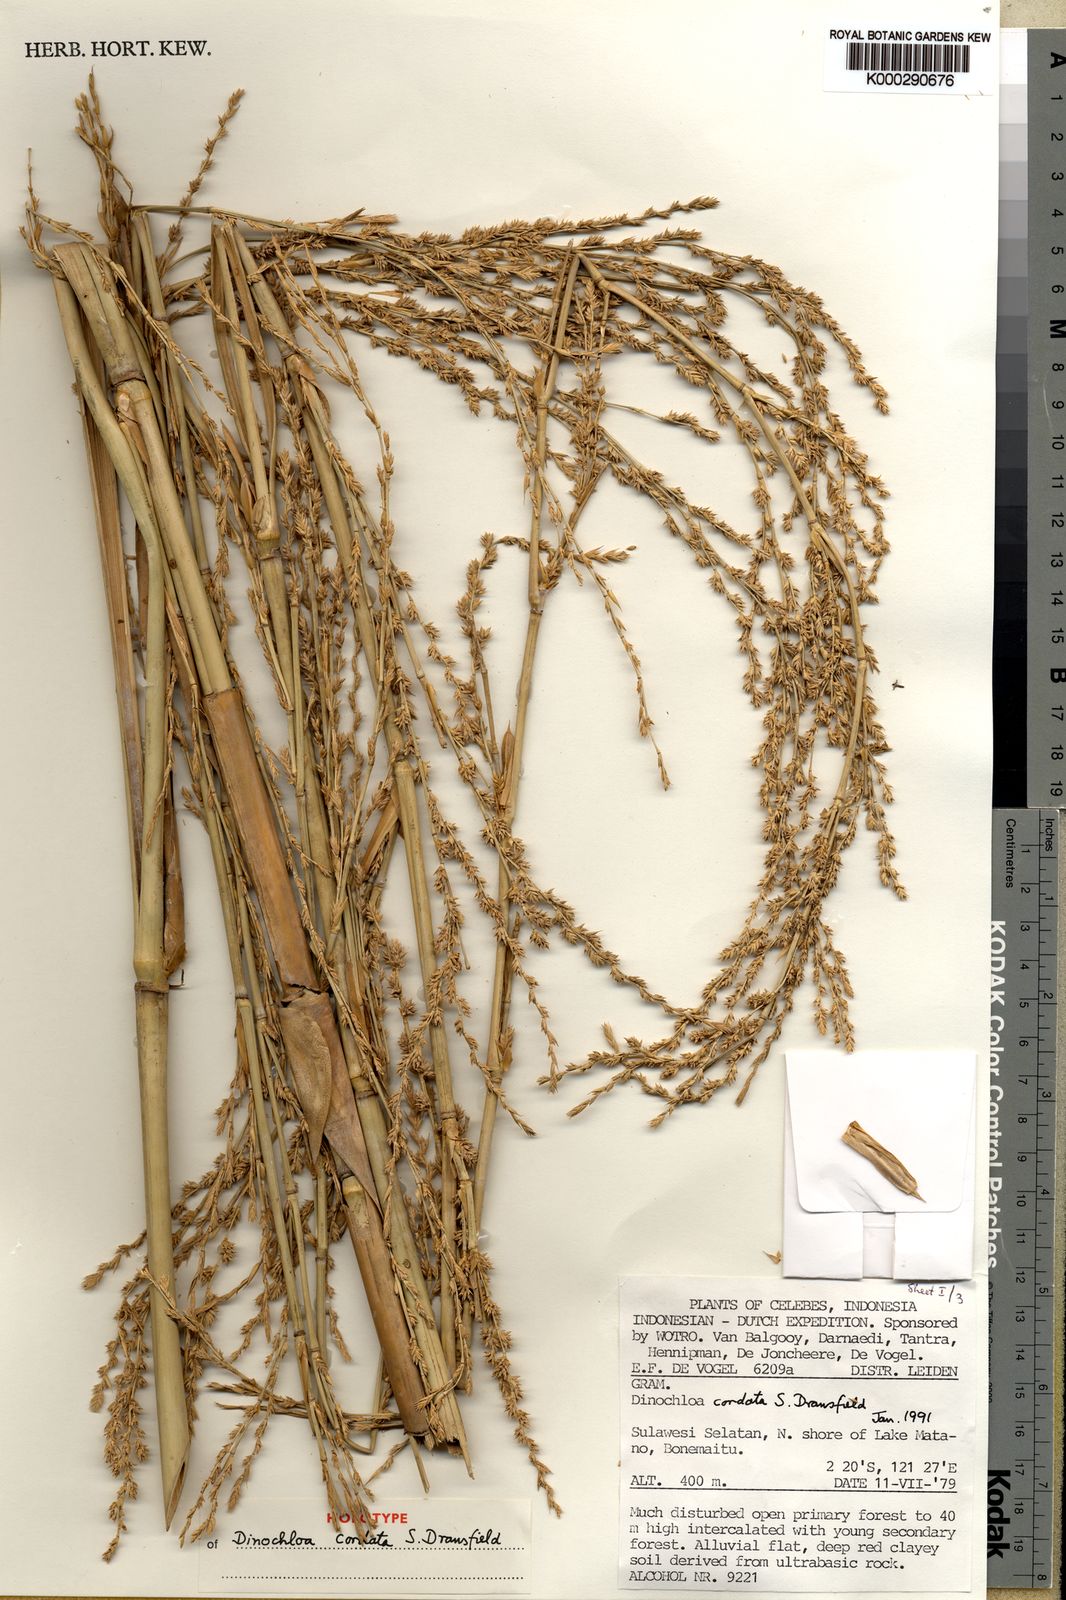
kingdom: Plantae
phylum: Tracheophyta
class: Liliopsida
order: Poales
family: Poaceae
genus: Dinochloa
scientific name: Dinochloa cordata
